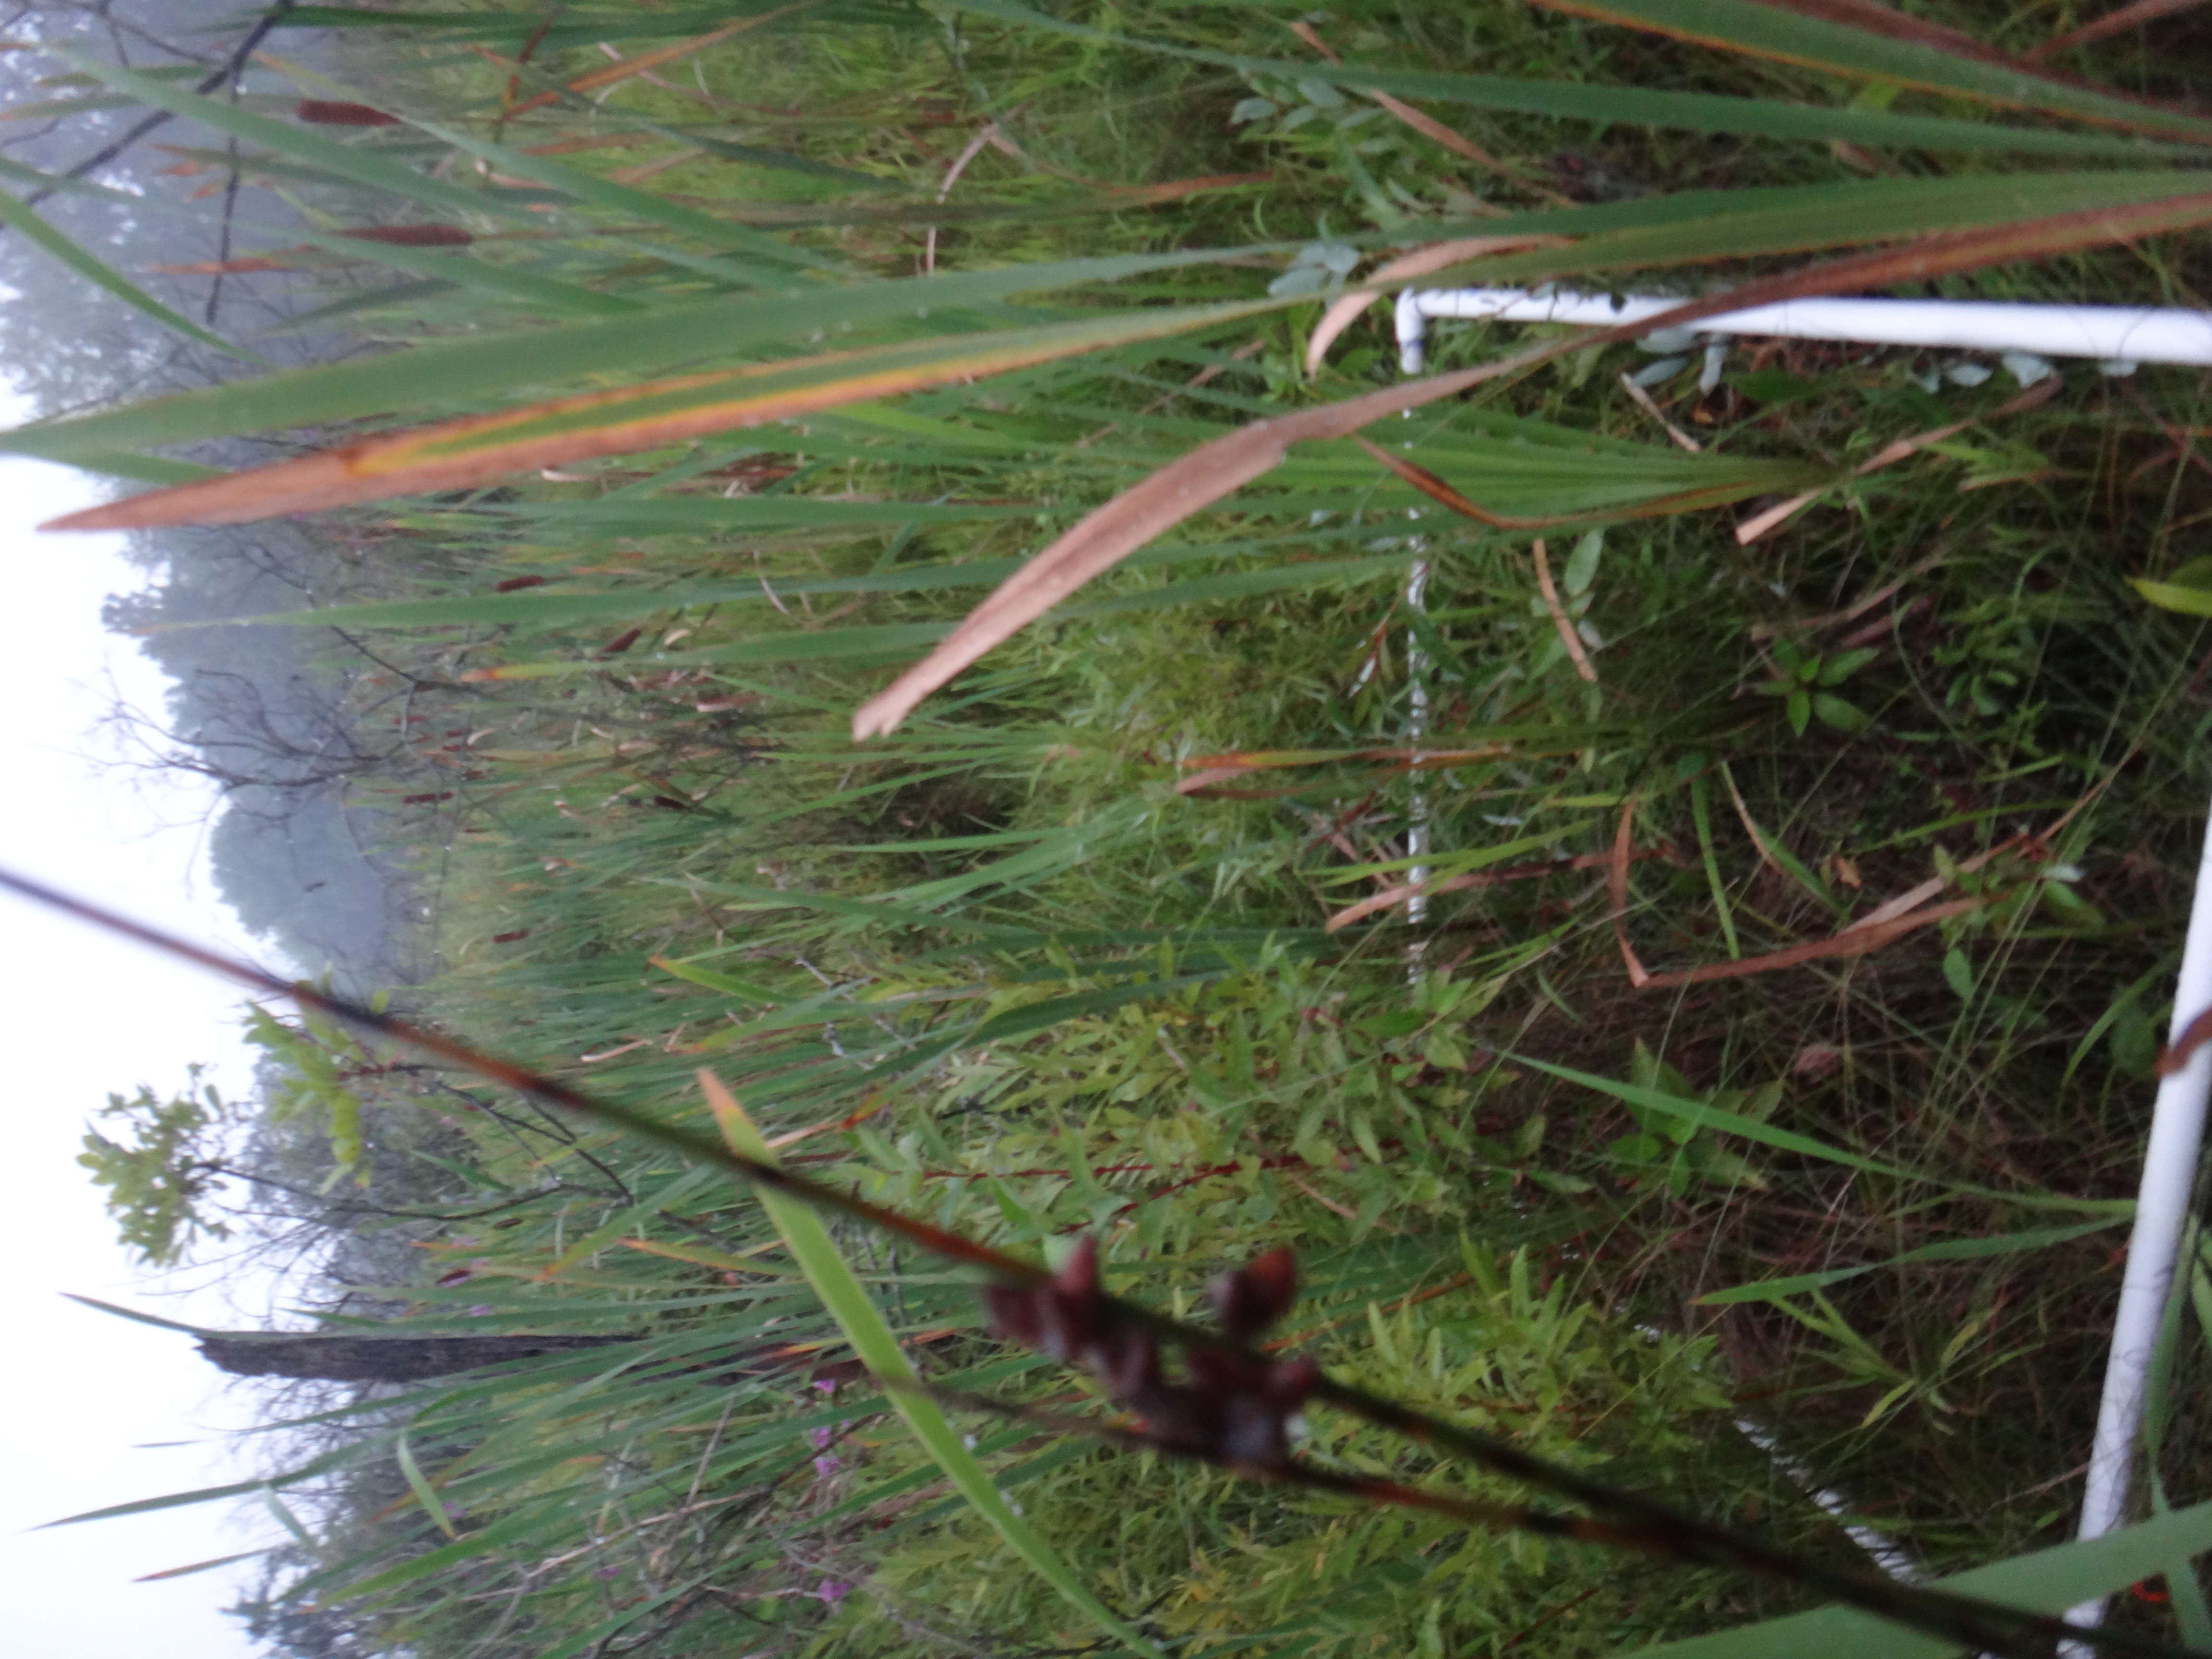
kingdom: Plantae
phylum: Tracheophyta
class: Liliopsida
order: Alismatales
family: Alismataceae
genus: Sagittaria
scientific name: Sagittaria latifolia
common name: Duck-potato
